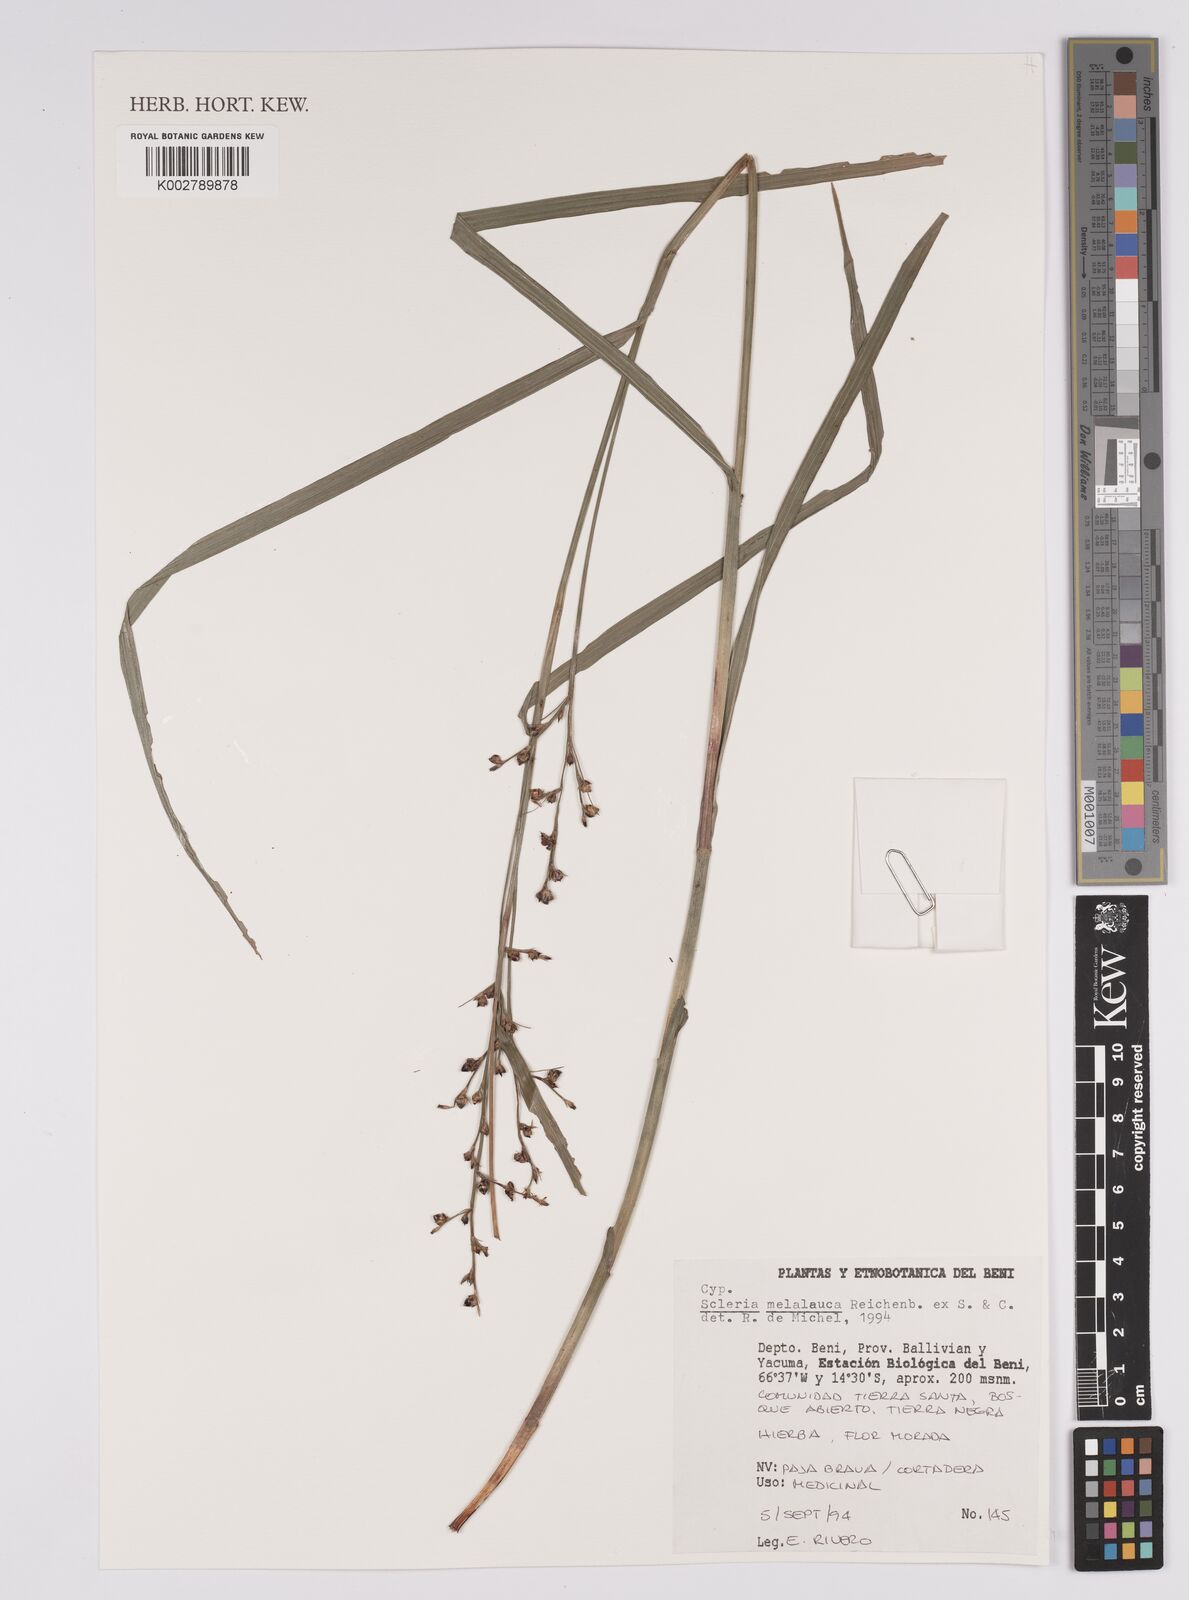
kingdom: Plantae
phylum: Tracheophyta
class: Liliopsida
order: Poales
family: Cyperaceae
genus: Scleria
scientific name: Scleria gaertneri
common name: Cortadera blanca
